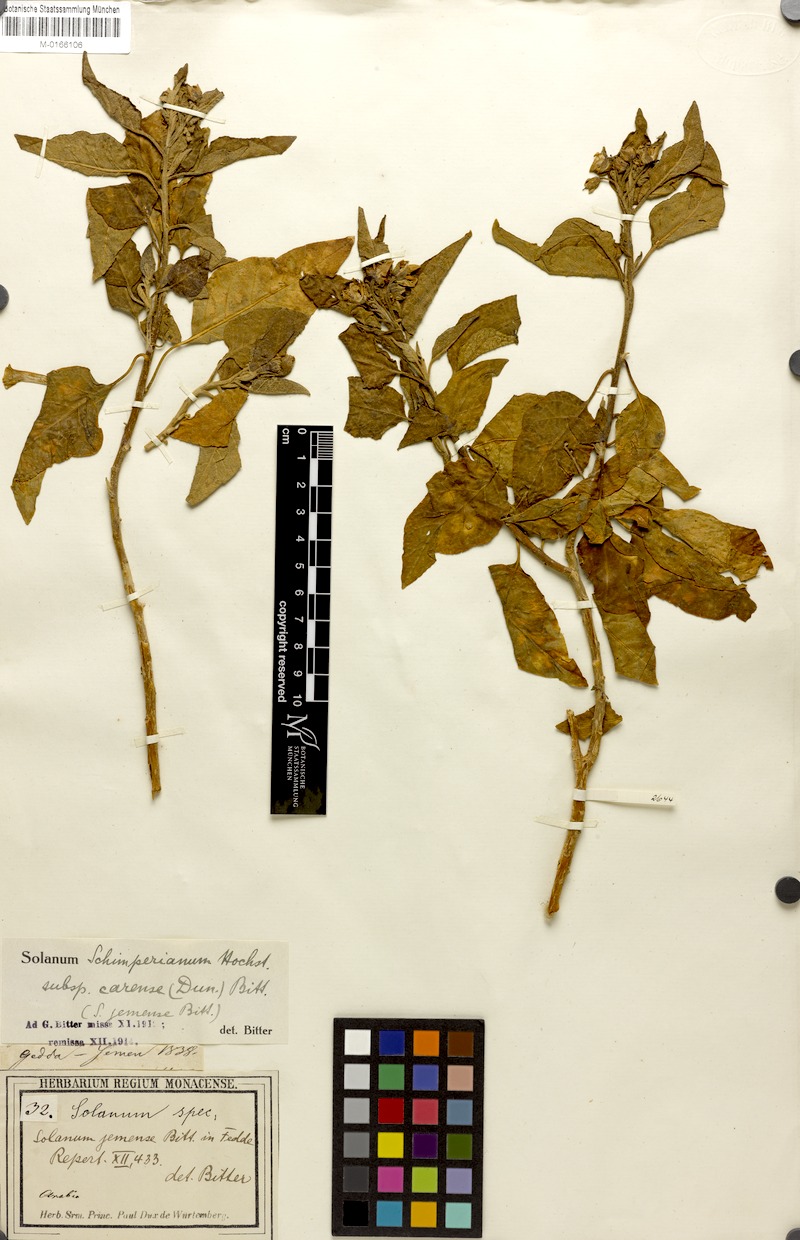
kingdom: Plantae
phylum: Tracheophyta
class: Magnoliopsida
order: Solanales
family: Solanaceae
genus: Solanum
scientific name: Solanum schimperianum
